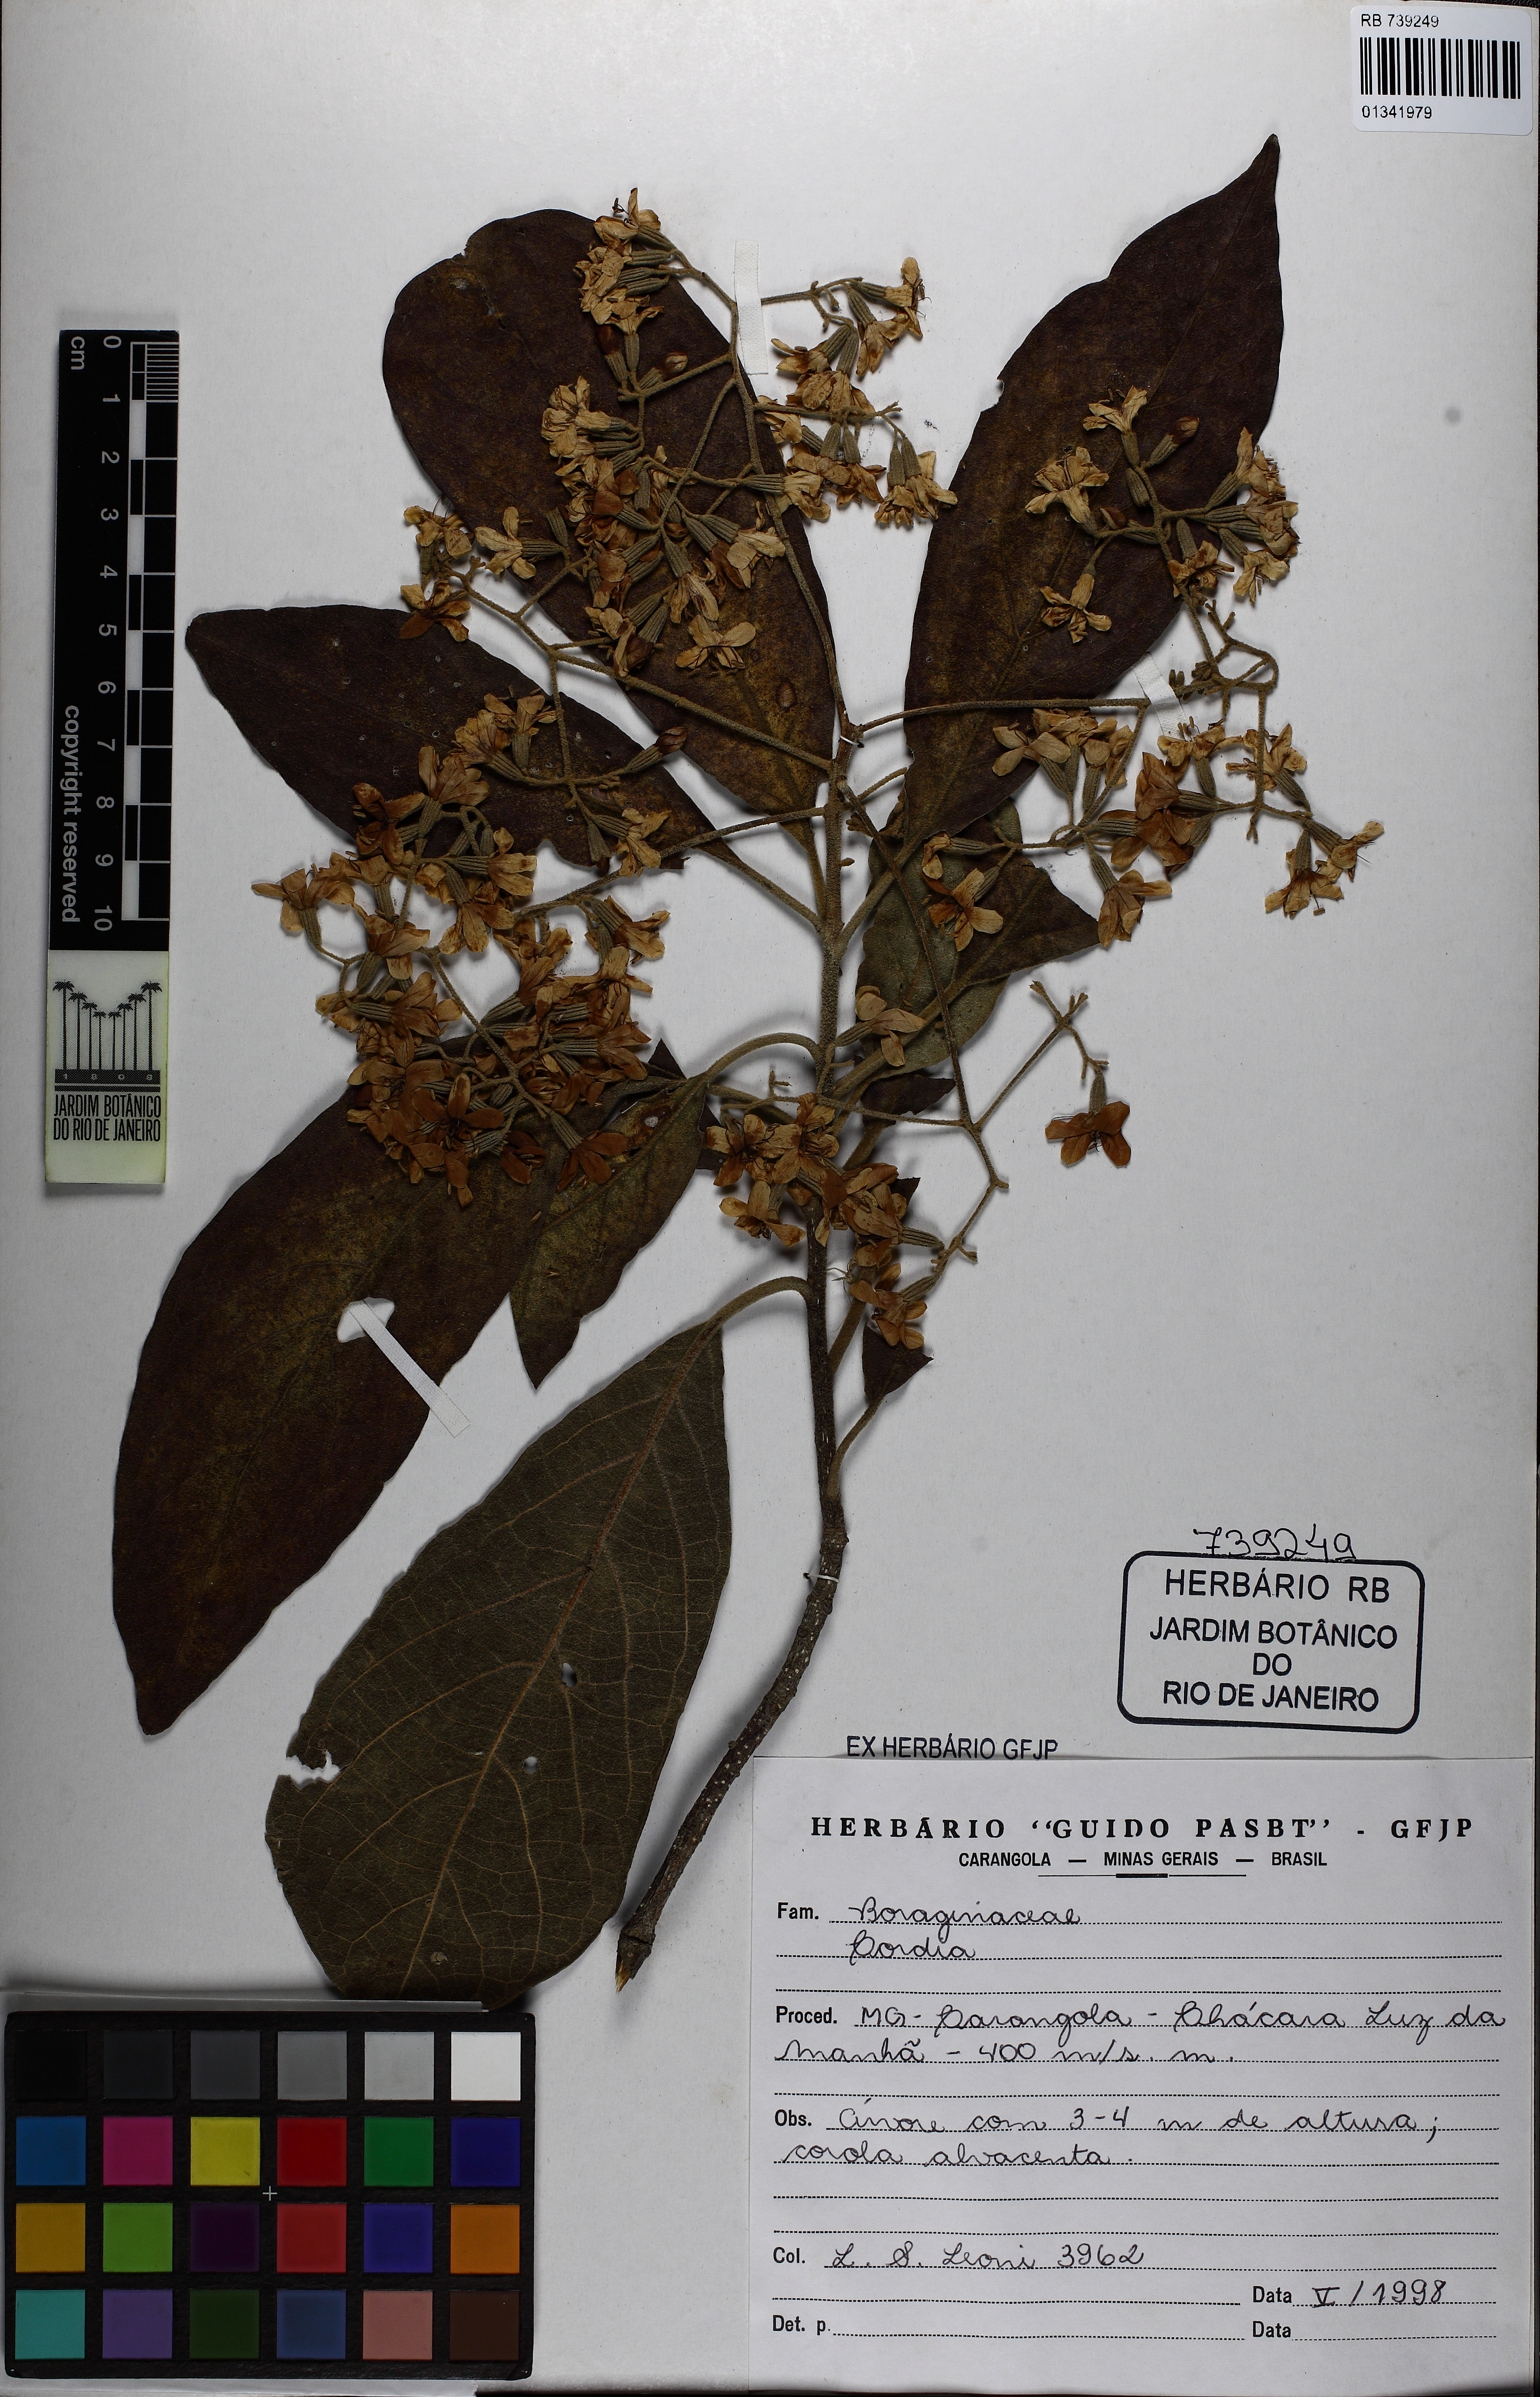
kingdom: Plantae
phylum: Tracheophyta
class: Magnoliopsida
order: Boraginales
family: Cordiaceae
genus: Cordia
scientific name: Cordia
